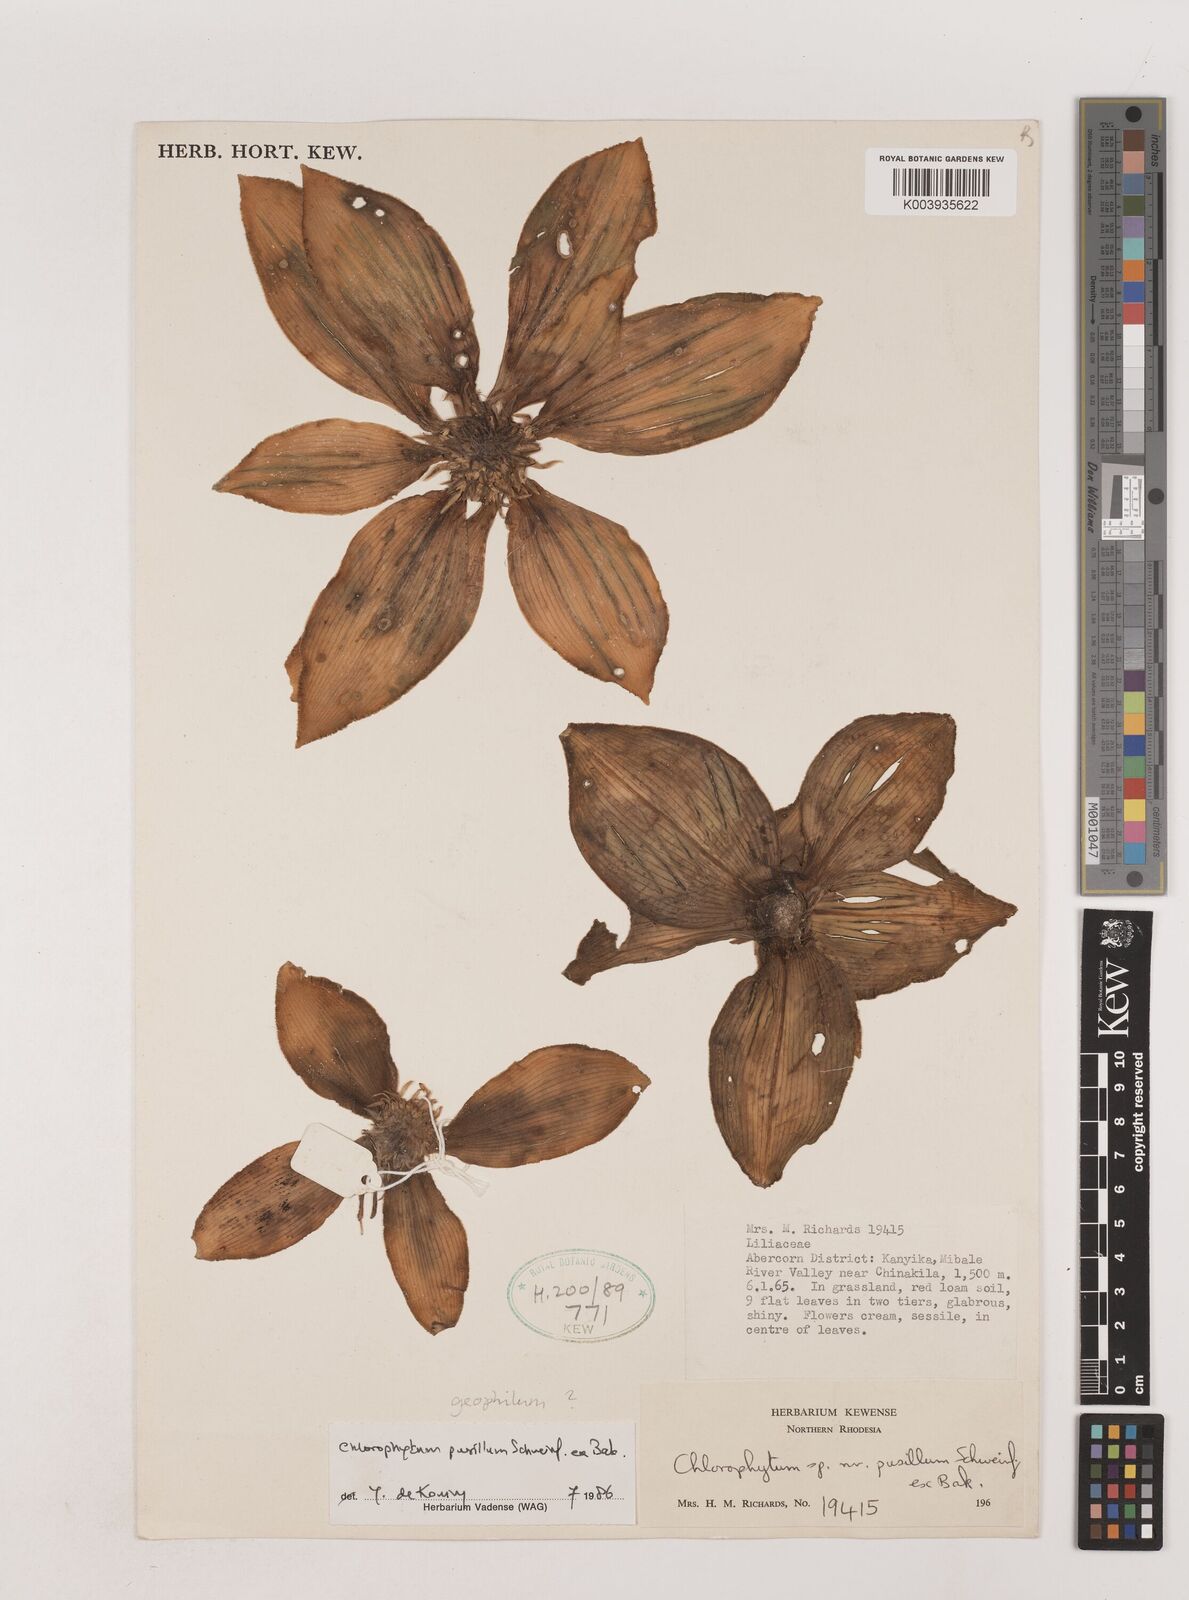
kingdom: Plantae
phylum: Tracheophyta
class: Liliopsida
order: Asparagales
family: Asparagaceae
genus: Chlorophytum
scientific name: Chlorophytum pusillum
